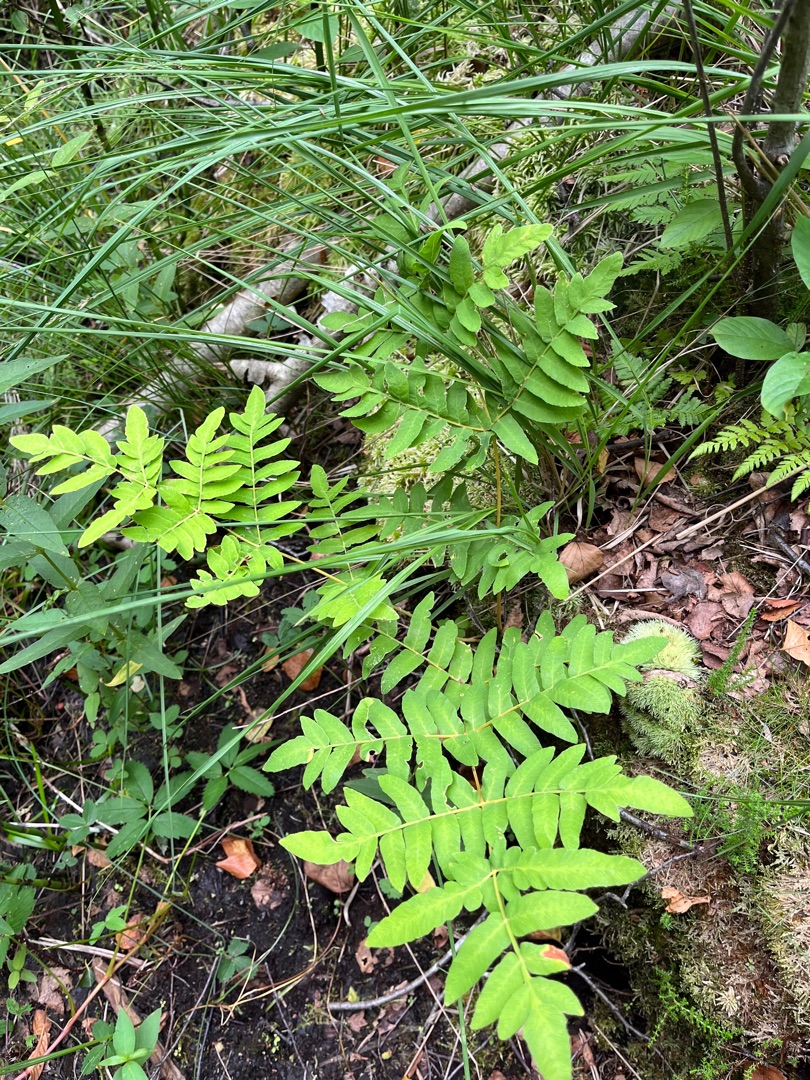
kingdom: Plantae
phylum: Tracheophyta
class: Polypodiopsida
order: Osmundales
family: Osmundaceae
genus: Osmunda
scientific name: Osmunda regalis
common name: Kongebregne
